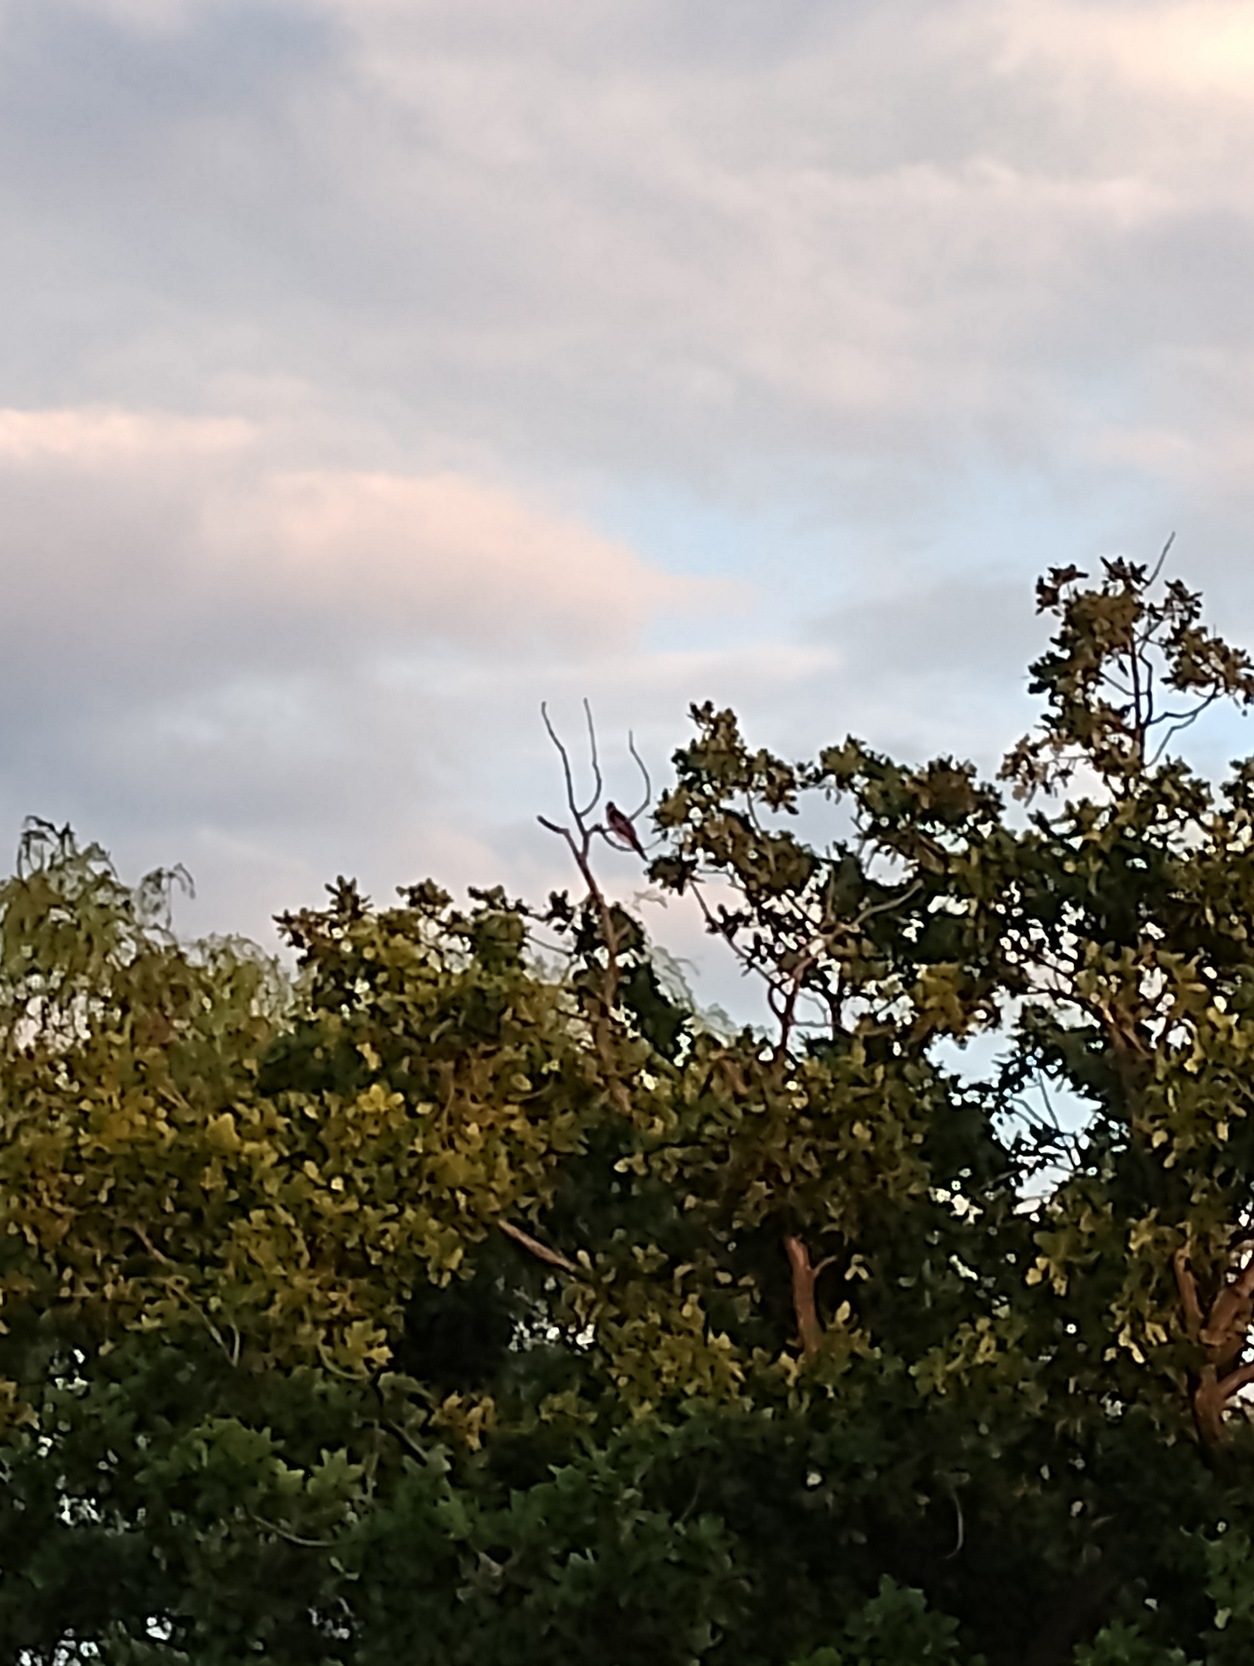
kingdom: Animalia
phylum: Chordata
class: Aves
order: Falconiformes
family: Falconidae
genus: Falco
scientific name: Falco subbuteo
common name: Lærkefalk
